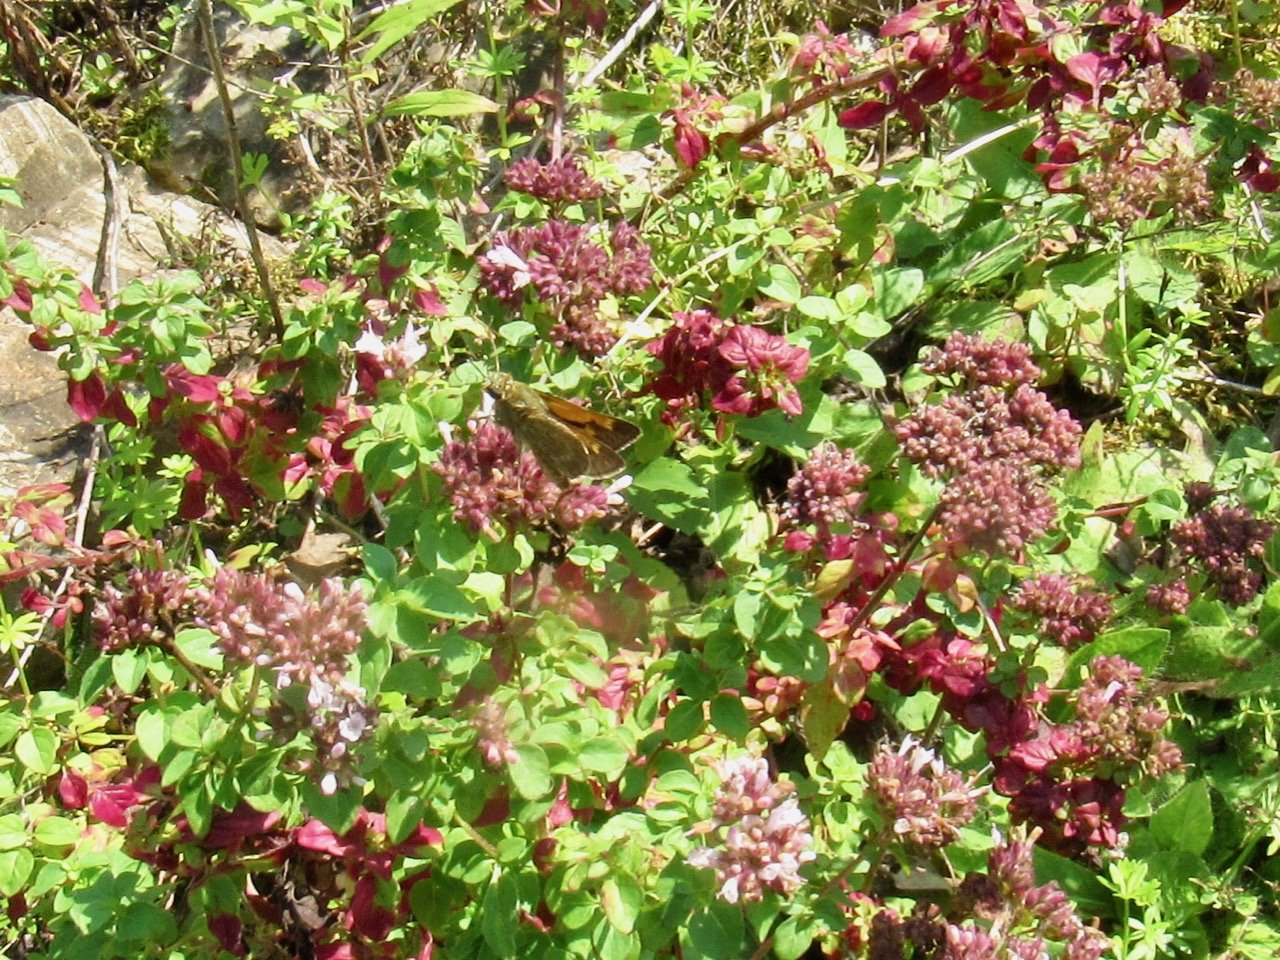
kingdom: Animalia
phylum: Arthropoda
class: Insecta
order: Lepidoptera
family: Hesperiidae
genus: Polites
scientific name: Polites themistocles
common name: Tawny-edged Skipper
